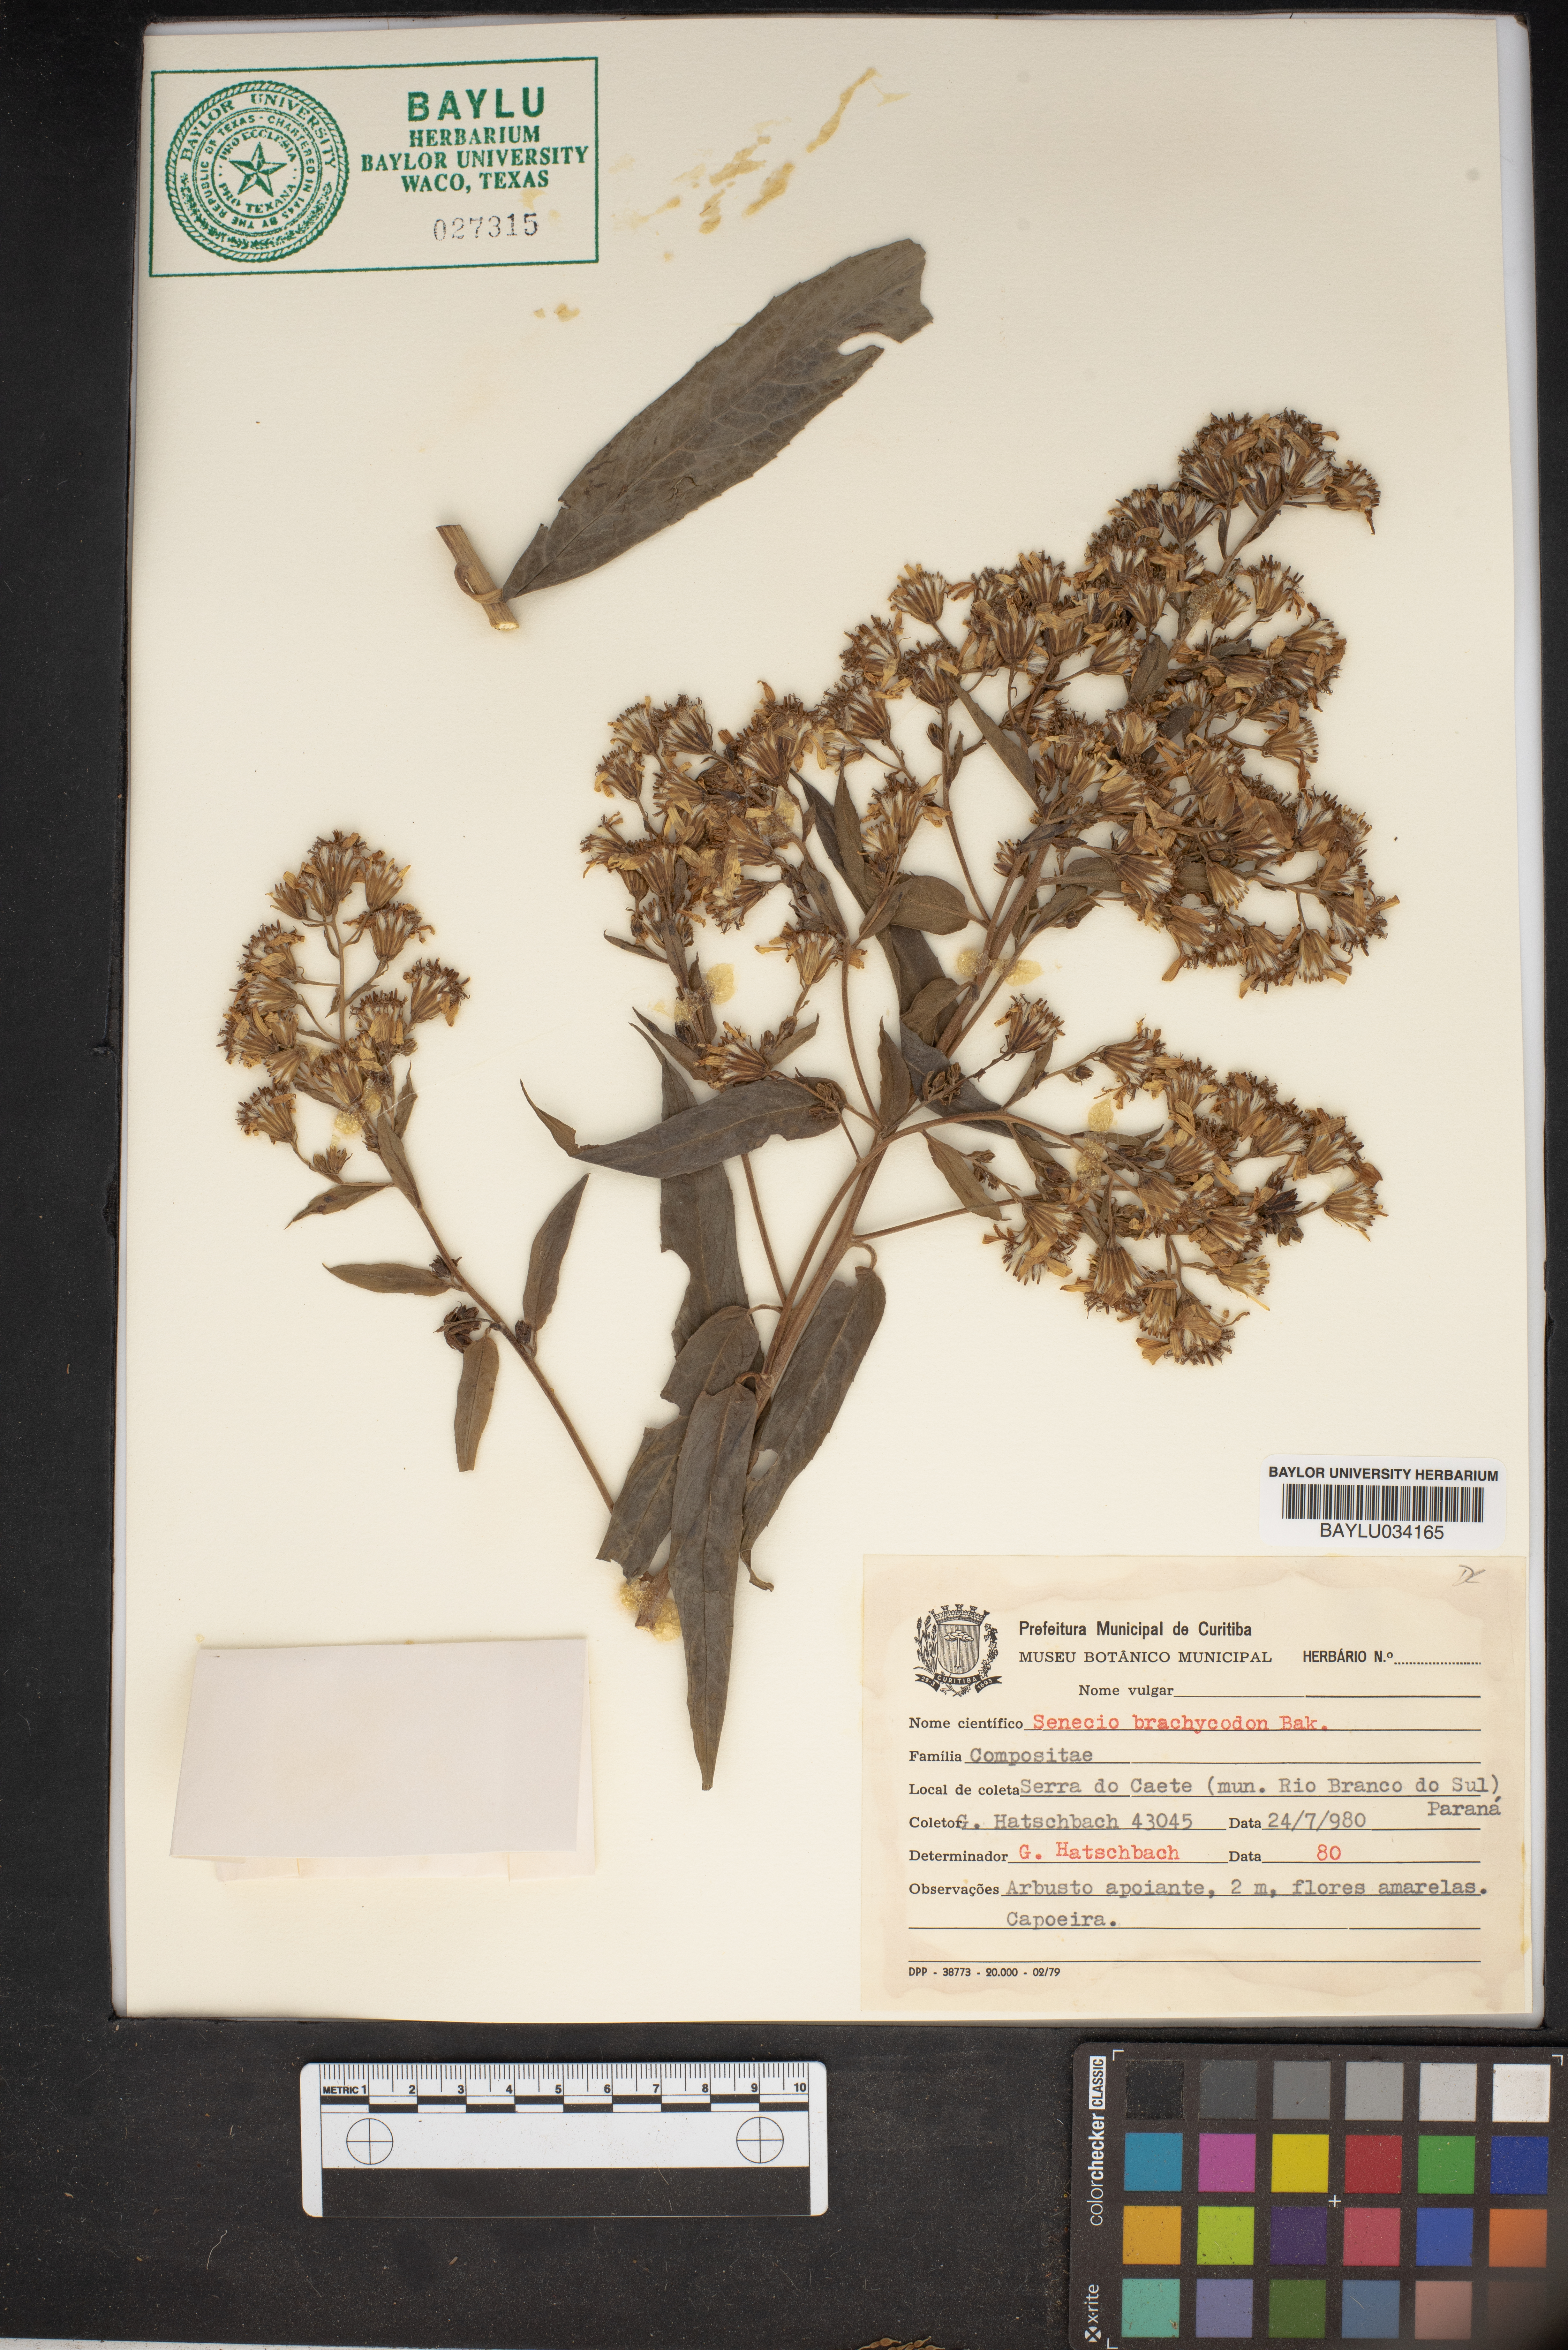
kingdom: Plantae
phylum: Tracheophyta
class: Magnoliopsida
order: Asterales
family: Asteraceae
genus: Dendrophorbium
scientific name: Dendrophorbium brachycodon
